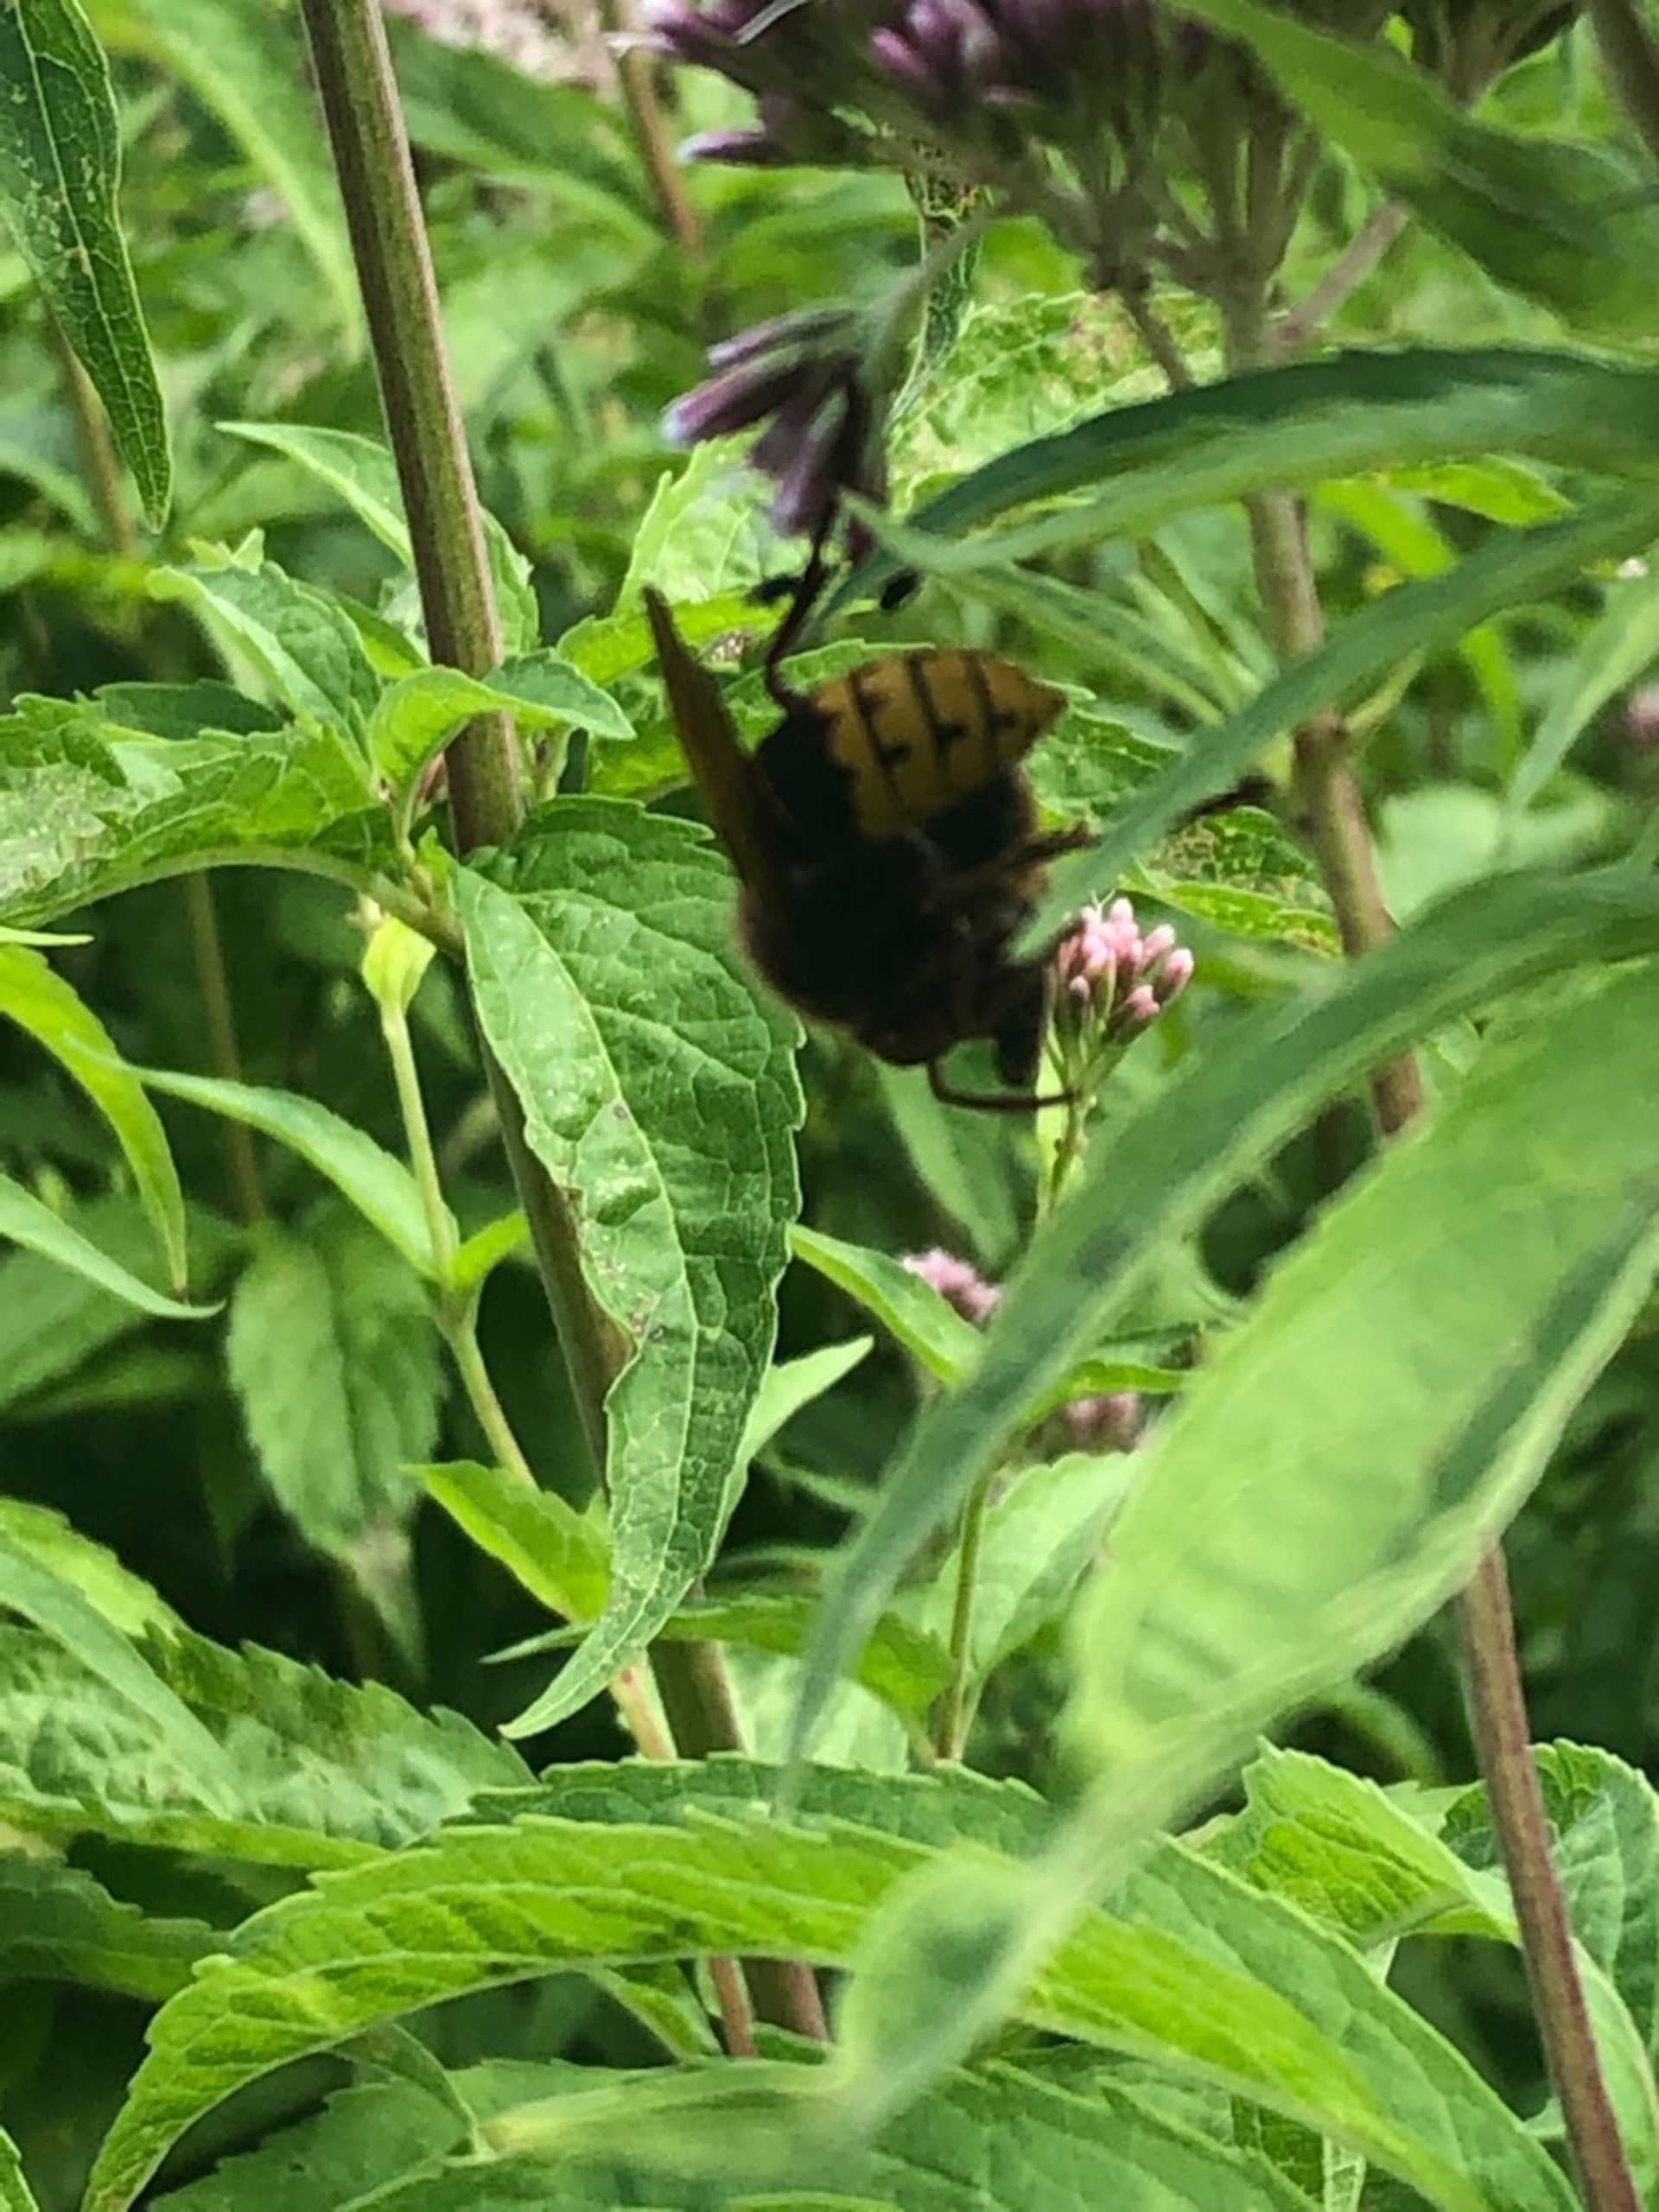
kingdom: Animalia
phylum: Arthropoda
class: Insecta
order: Hymenoptera
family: Vespidae
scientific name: Vespidae
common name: Gedehamse
